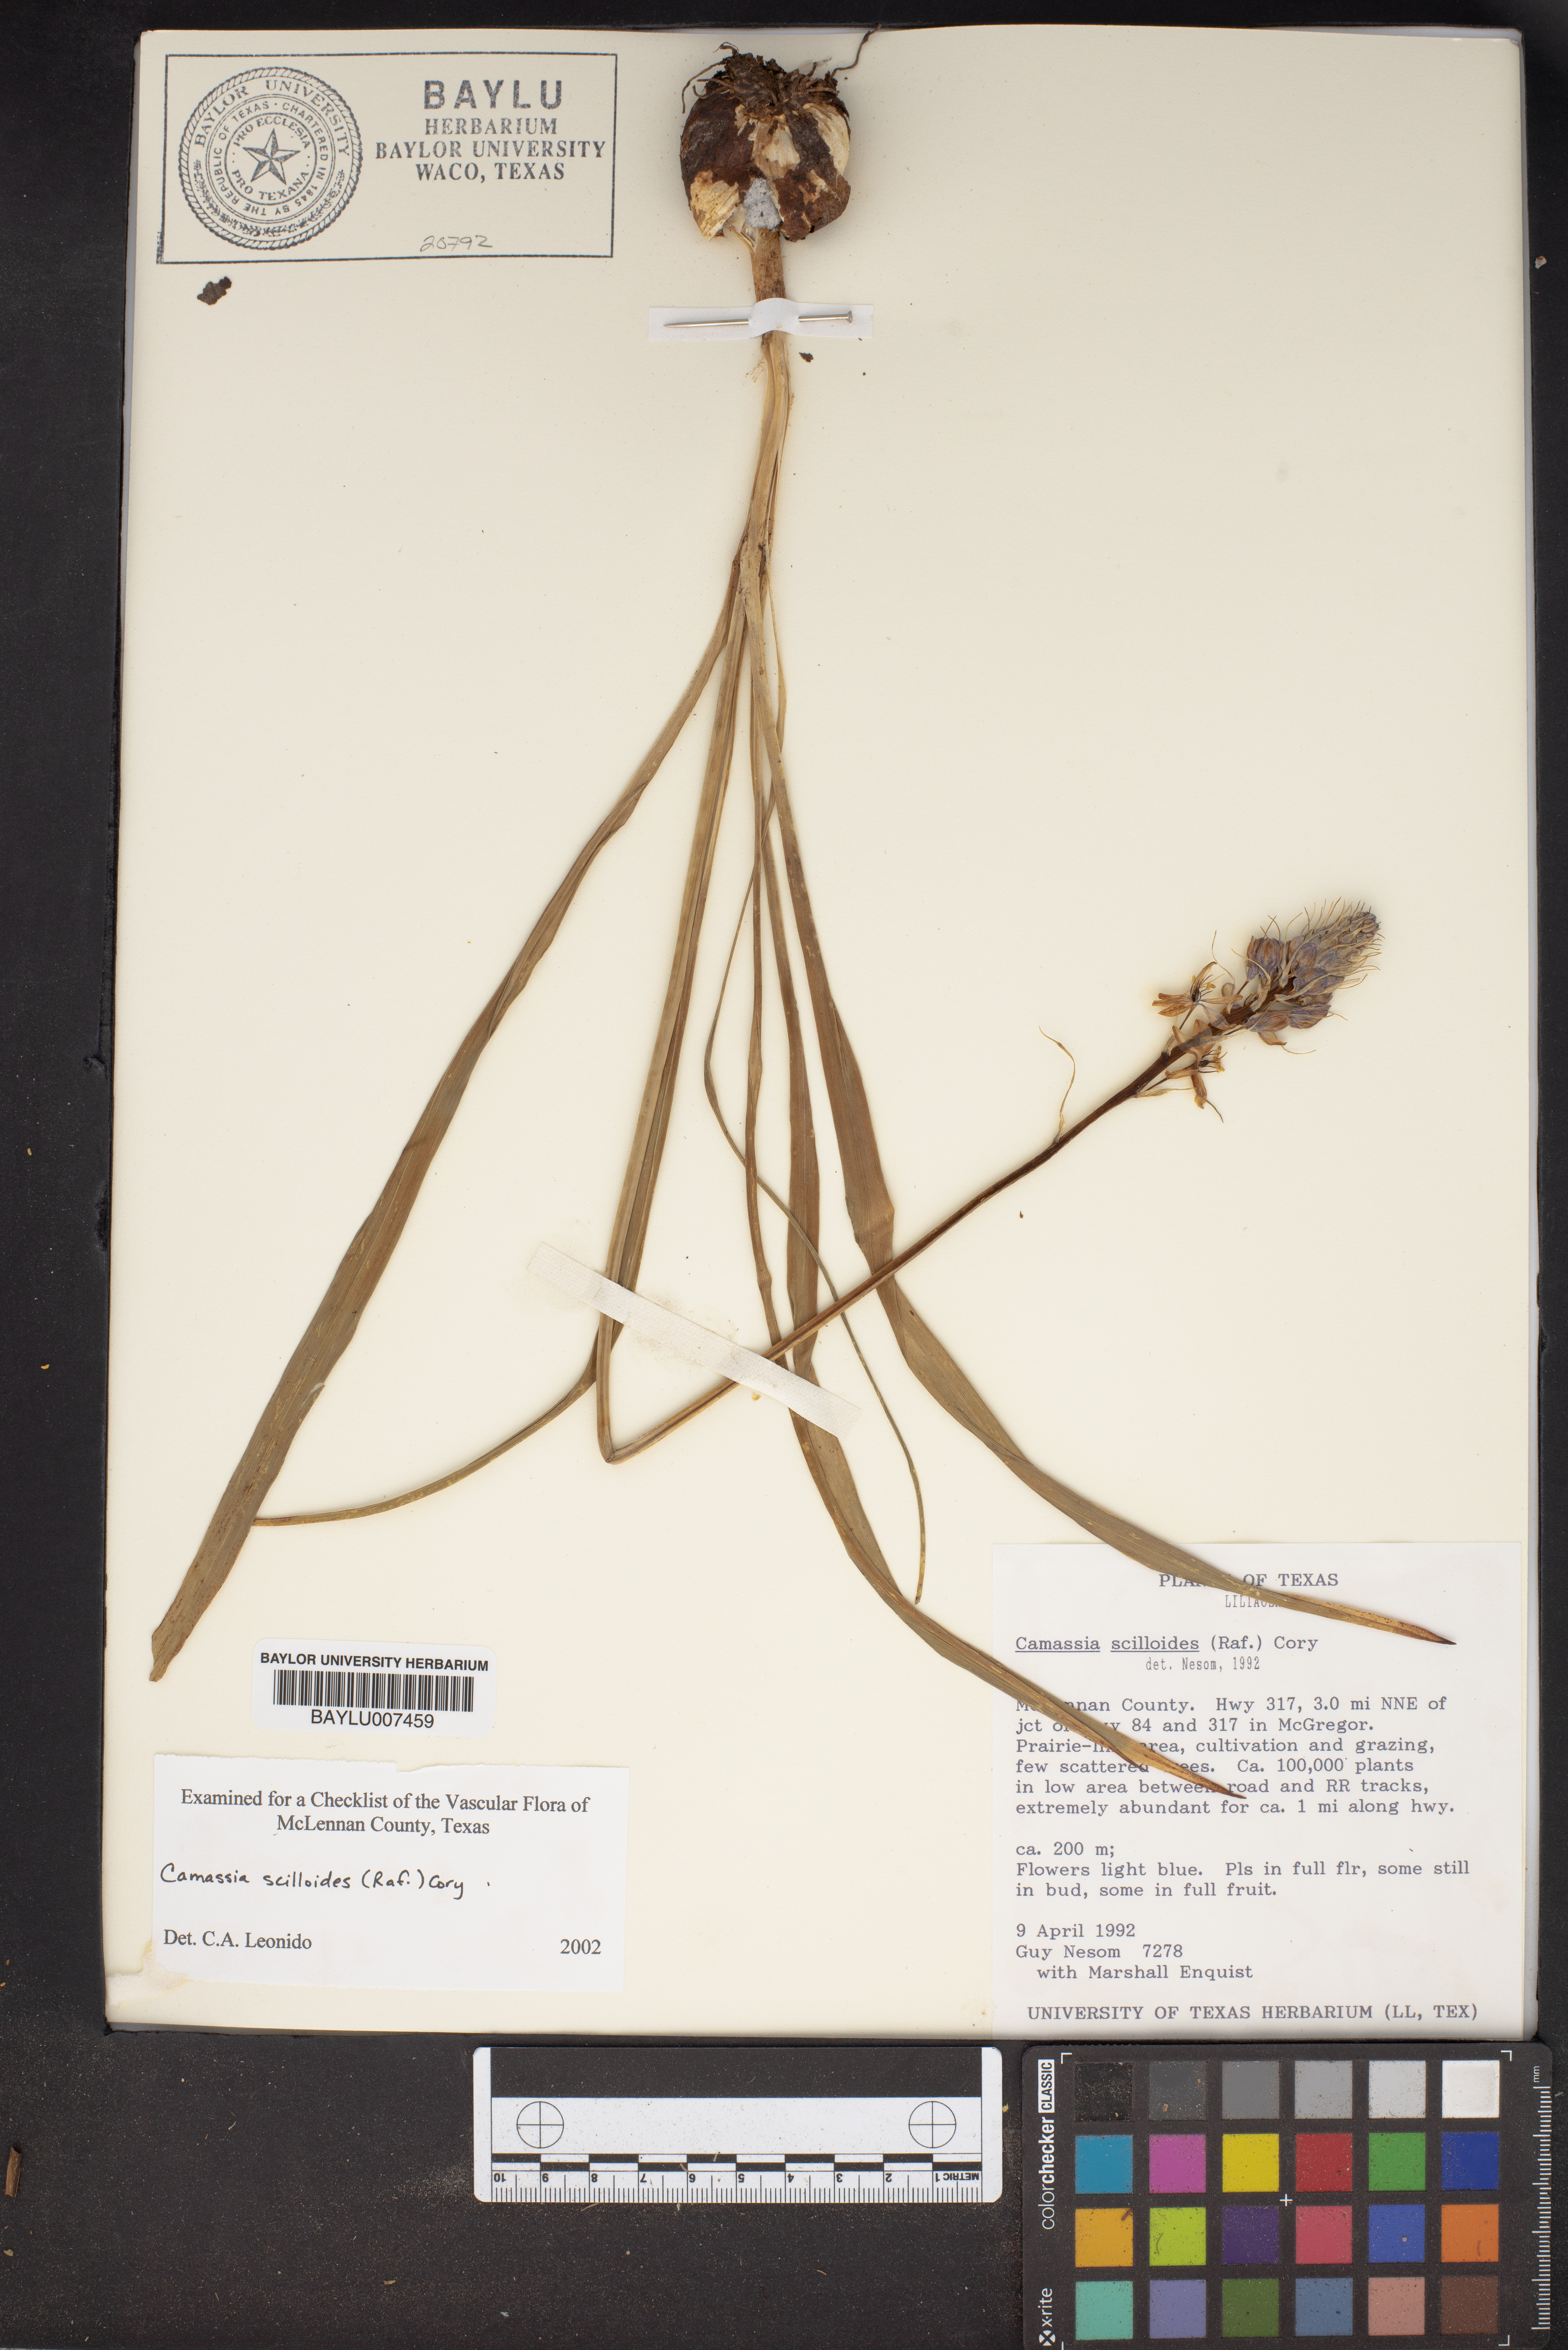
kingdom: Plantae
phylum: Tracheophyta
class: Liliopsida
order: Asparagales
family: Asparagaceae
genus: Camassia
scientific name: Camassia scilloides
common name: Wild hyacinth
